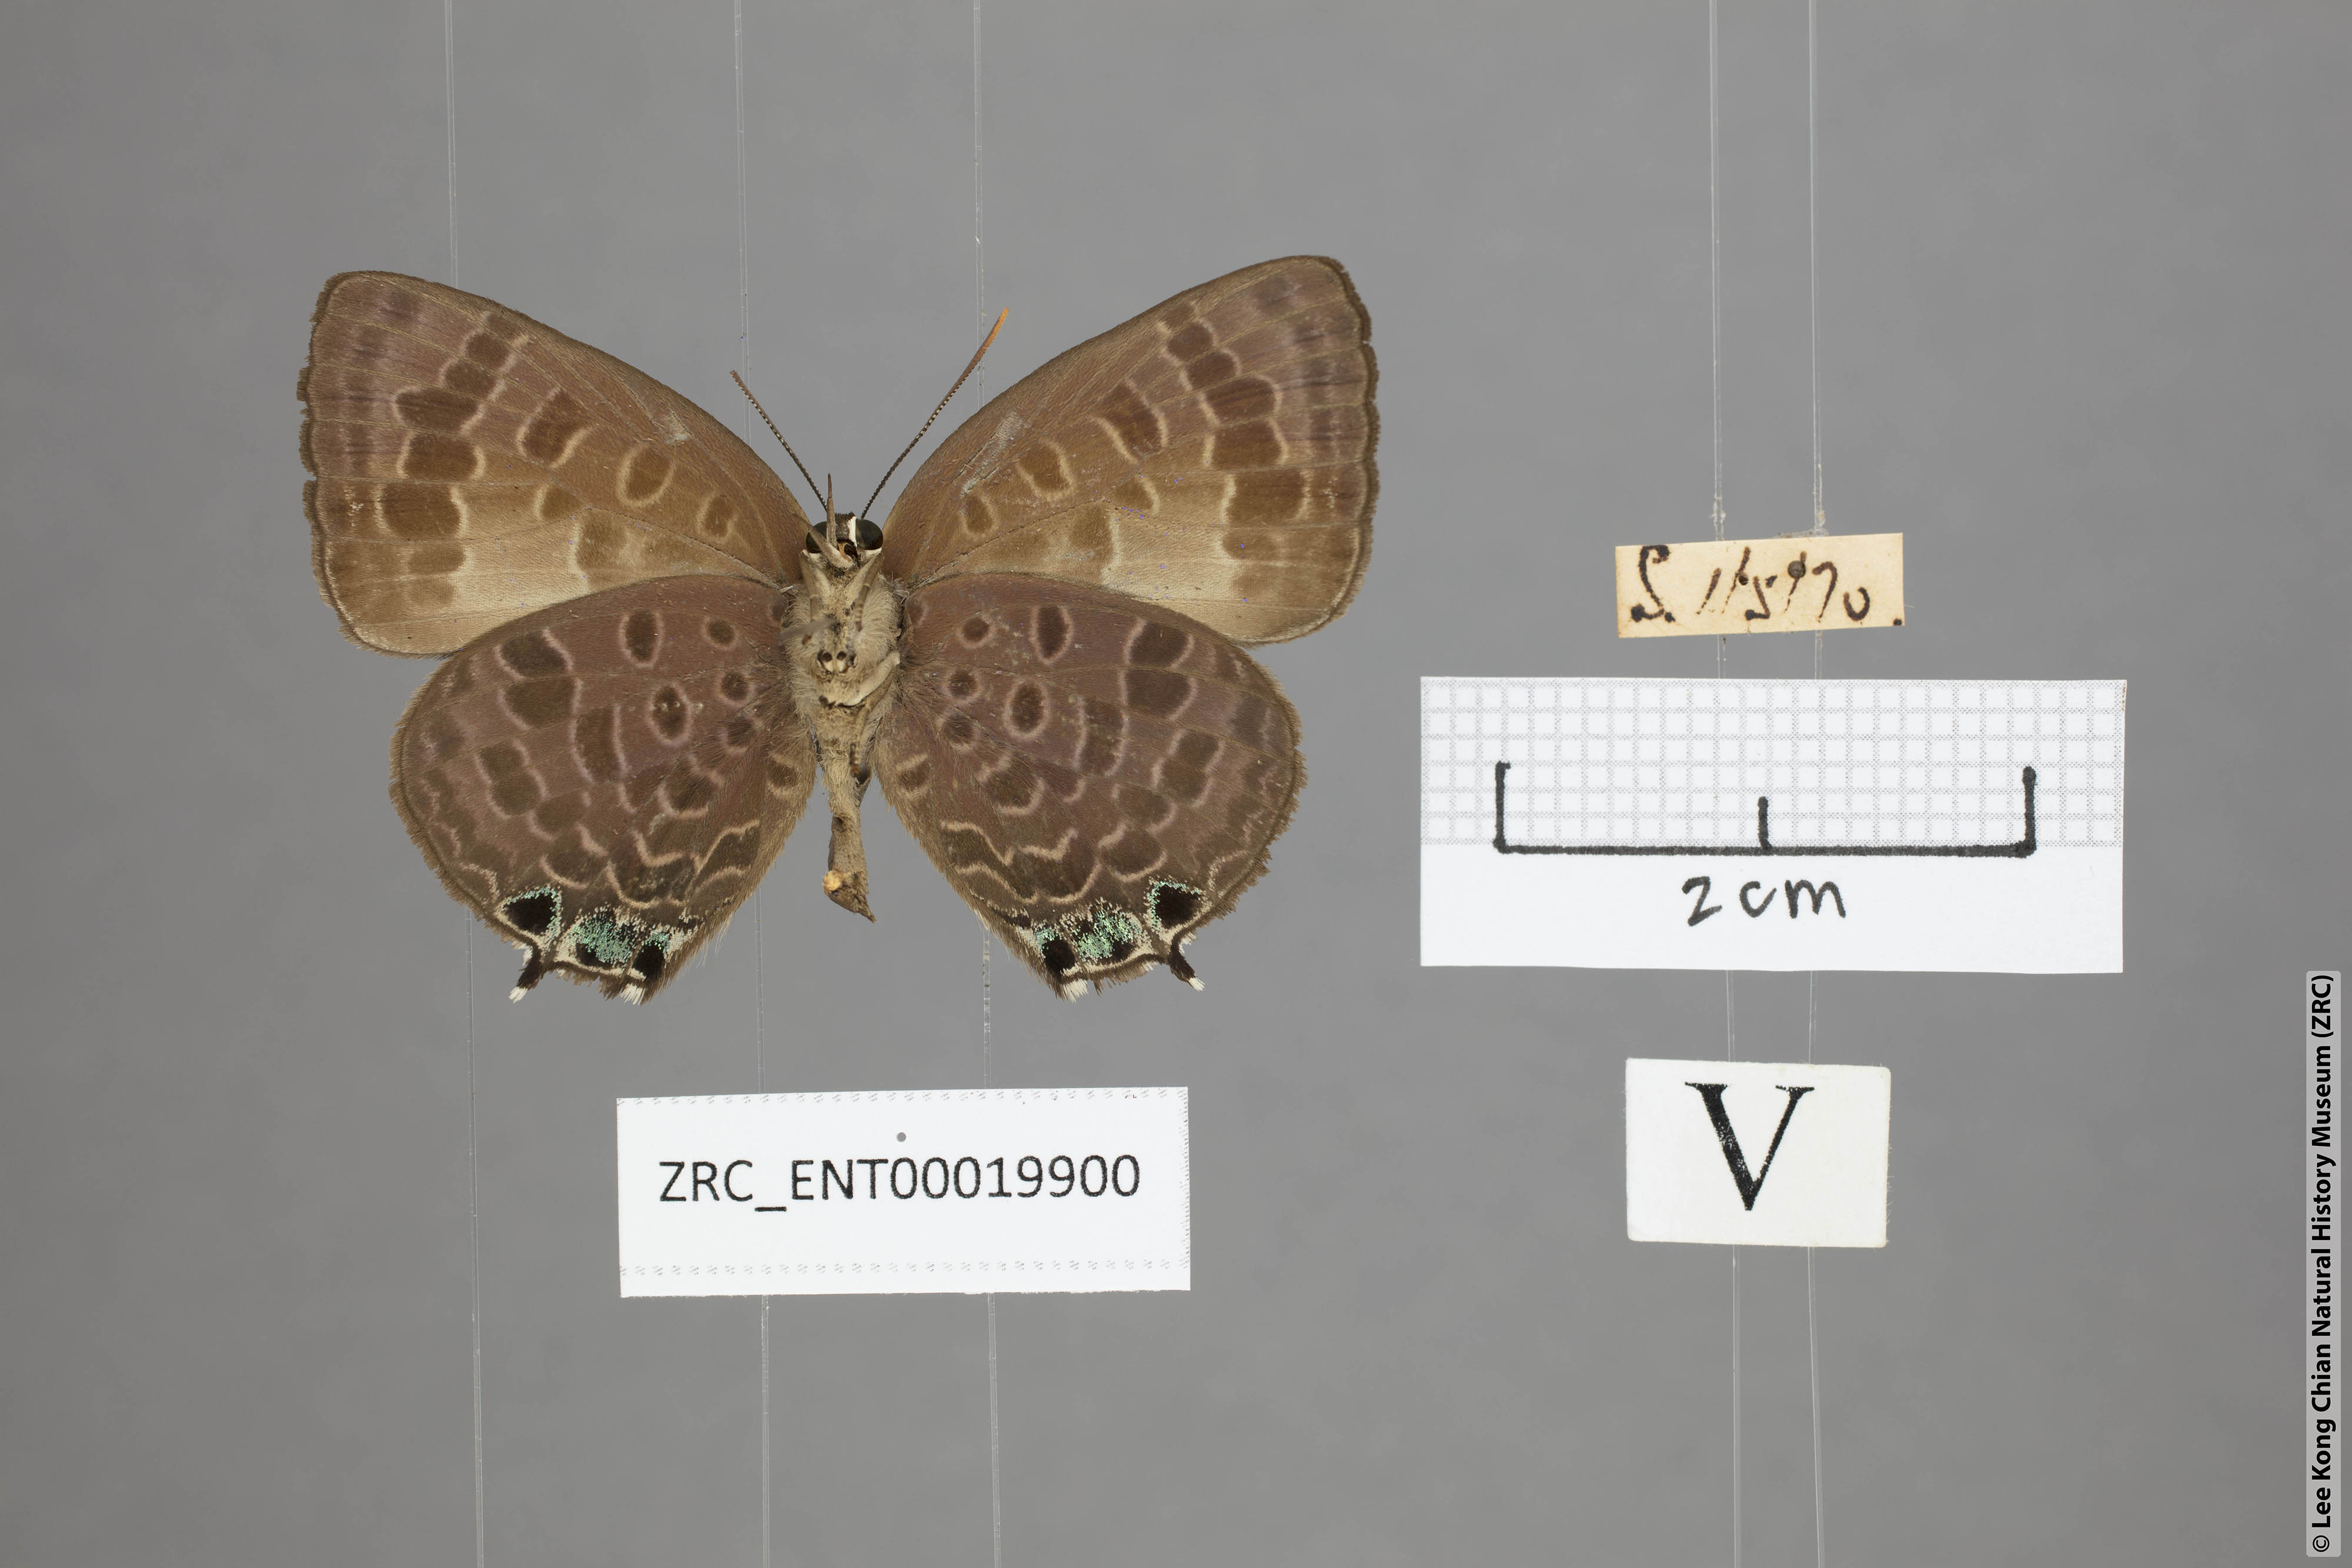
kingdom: Animalia
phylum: Arthropoda
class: Insecta
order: Lepidoptera
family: Lycaenidae
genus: Arhopala
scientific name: Arhopala trogon
